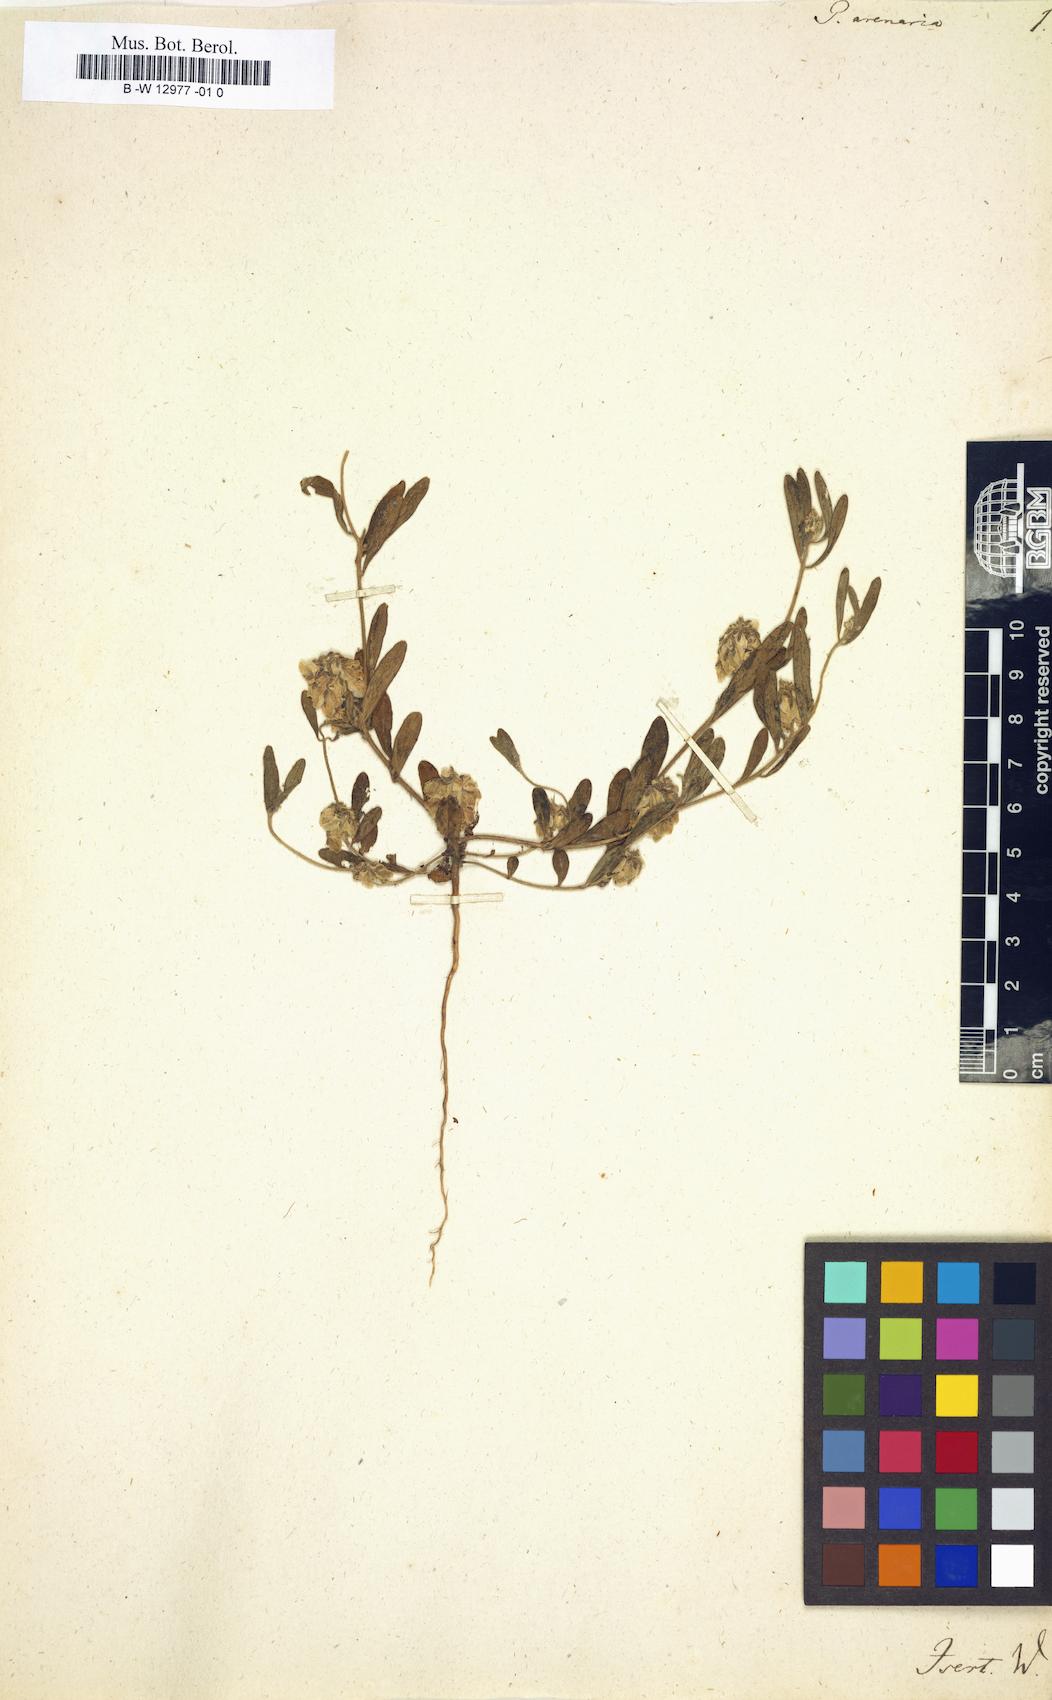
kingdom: Plantae
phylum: Tracheophyta
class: Magnoliopsida
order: Fabales
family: Polygalaceae
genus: Polygala
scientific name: Polygala arenaria
